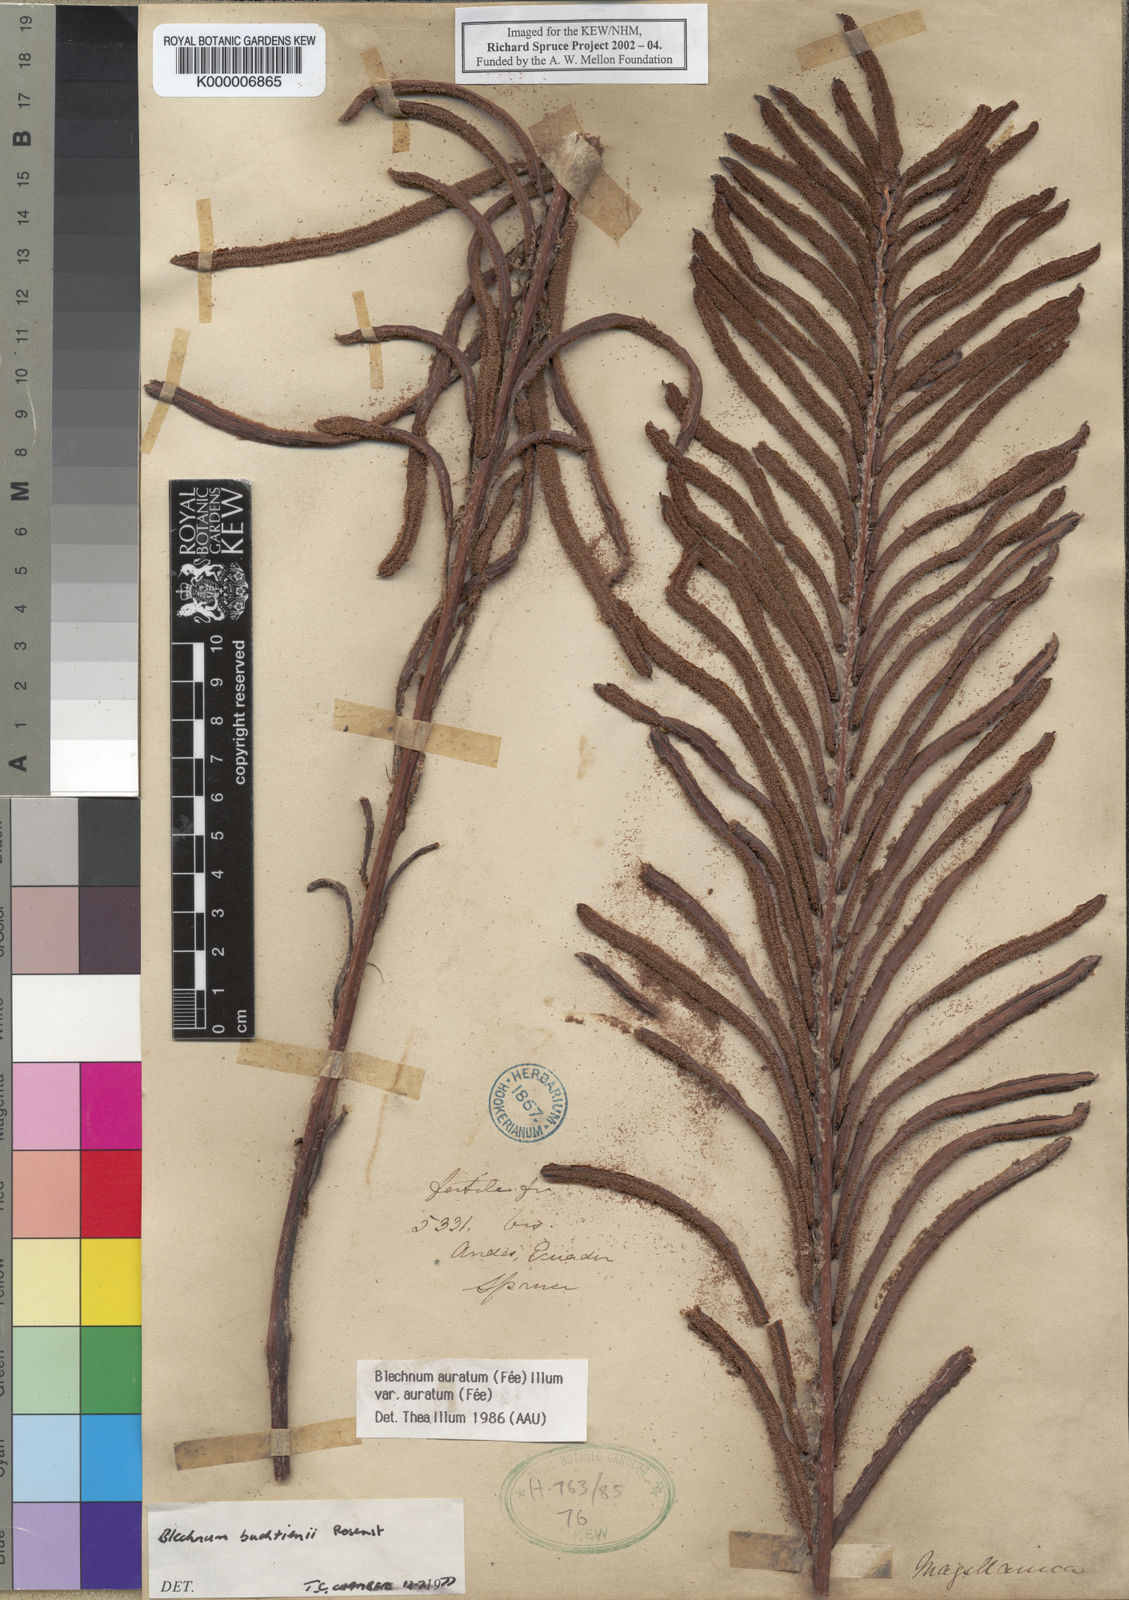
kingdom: Plantae
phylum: Tracheophyta
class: Polypodiopsida
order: Polypodiales
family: Blechnaceae
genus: Blechnum
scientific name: Blechnum
